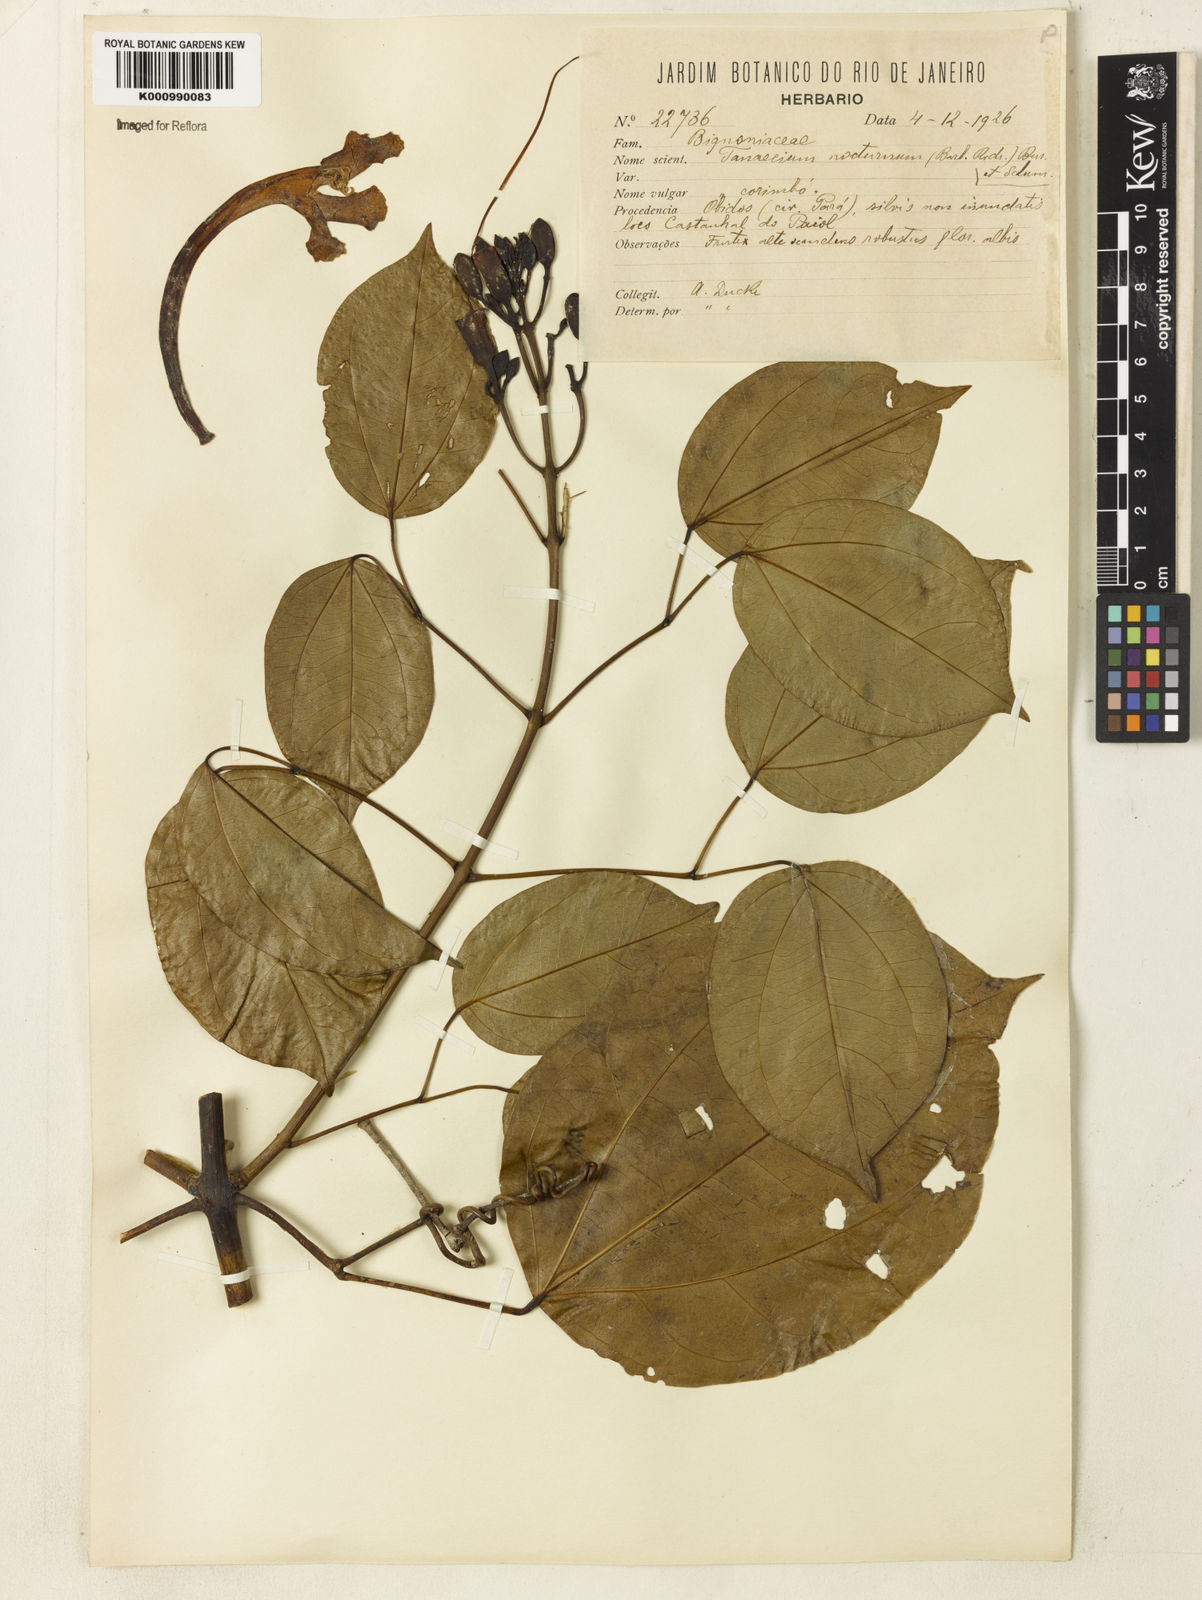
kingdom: Plantae
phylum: Tracheophyta
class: Magnoliopsida
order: Lamiales
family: Bignoniaceae
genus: Bignonia
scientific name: Bignonia nocturna
